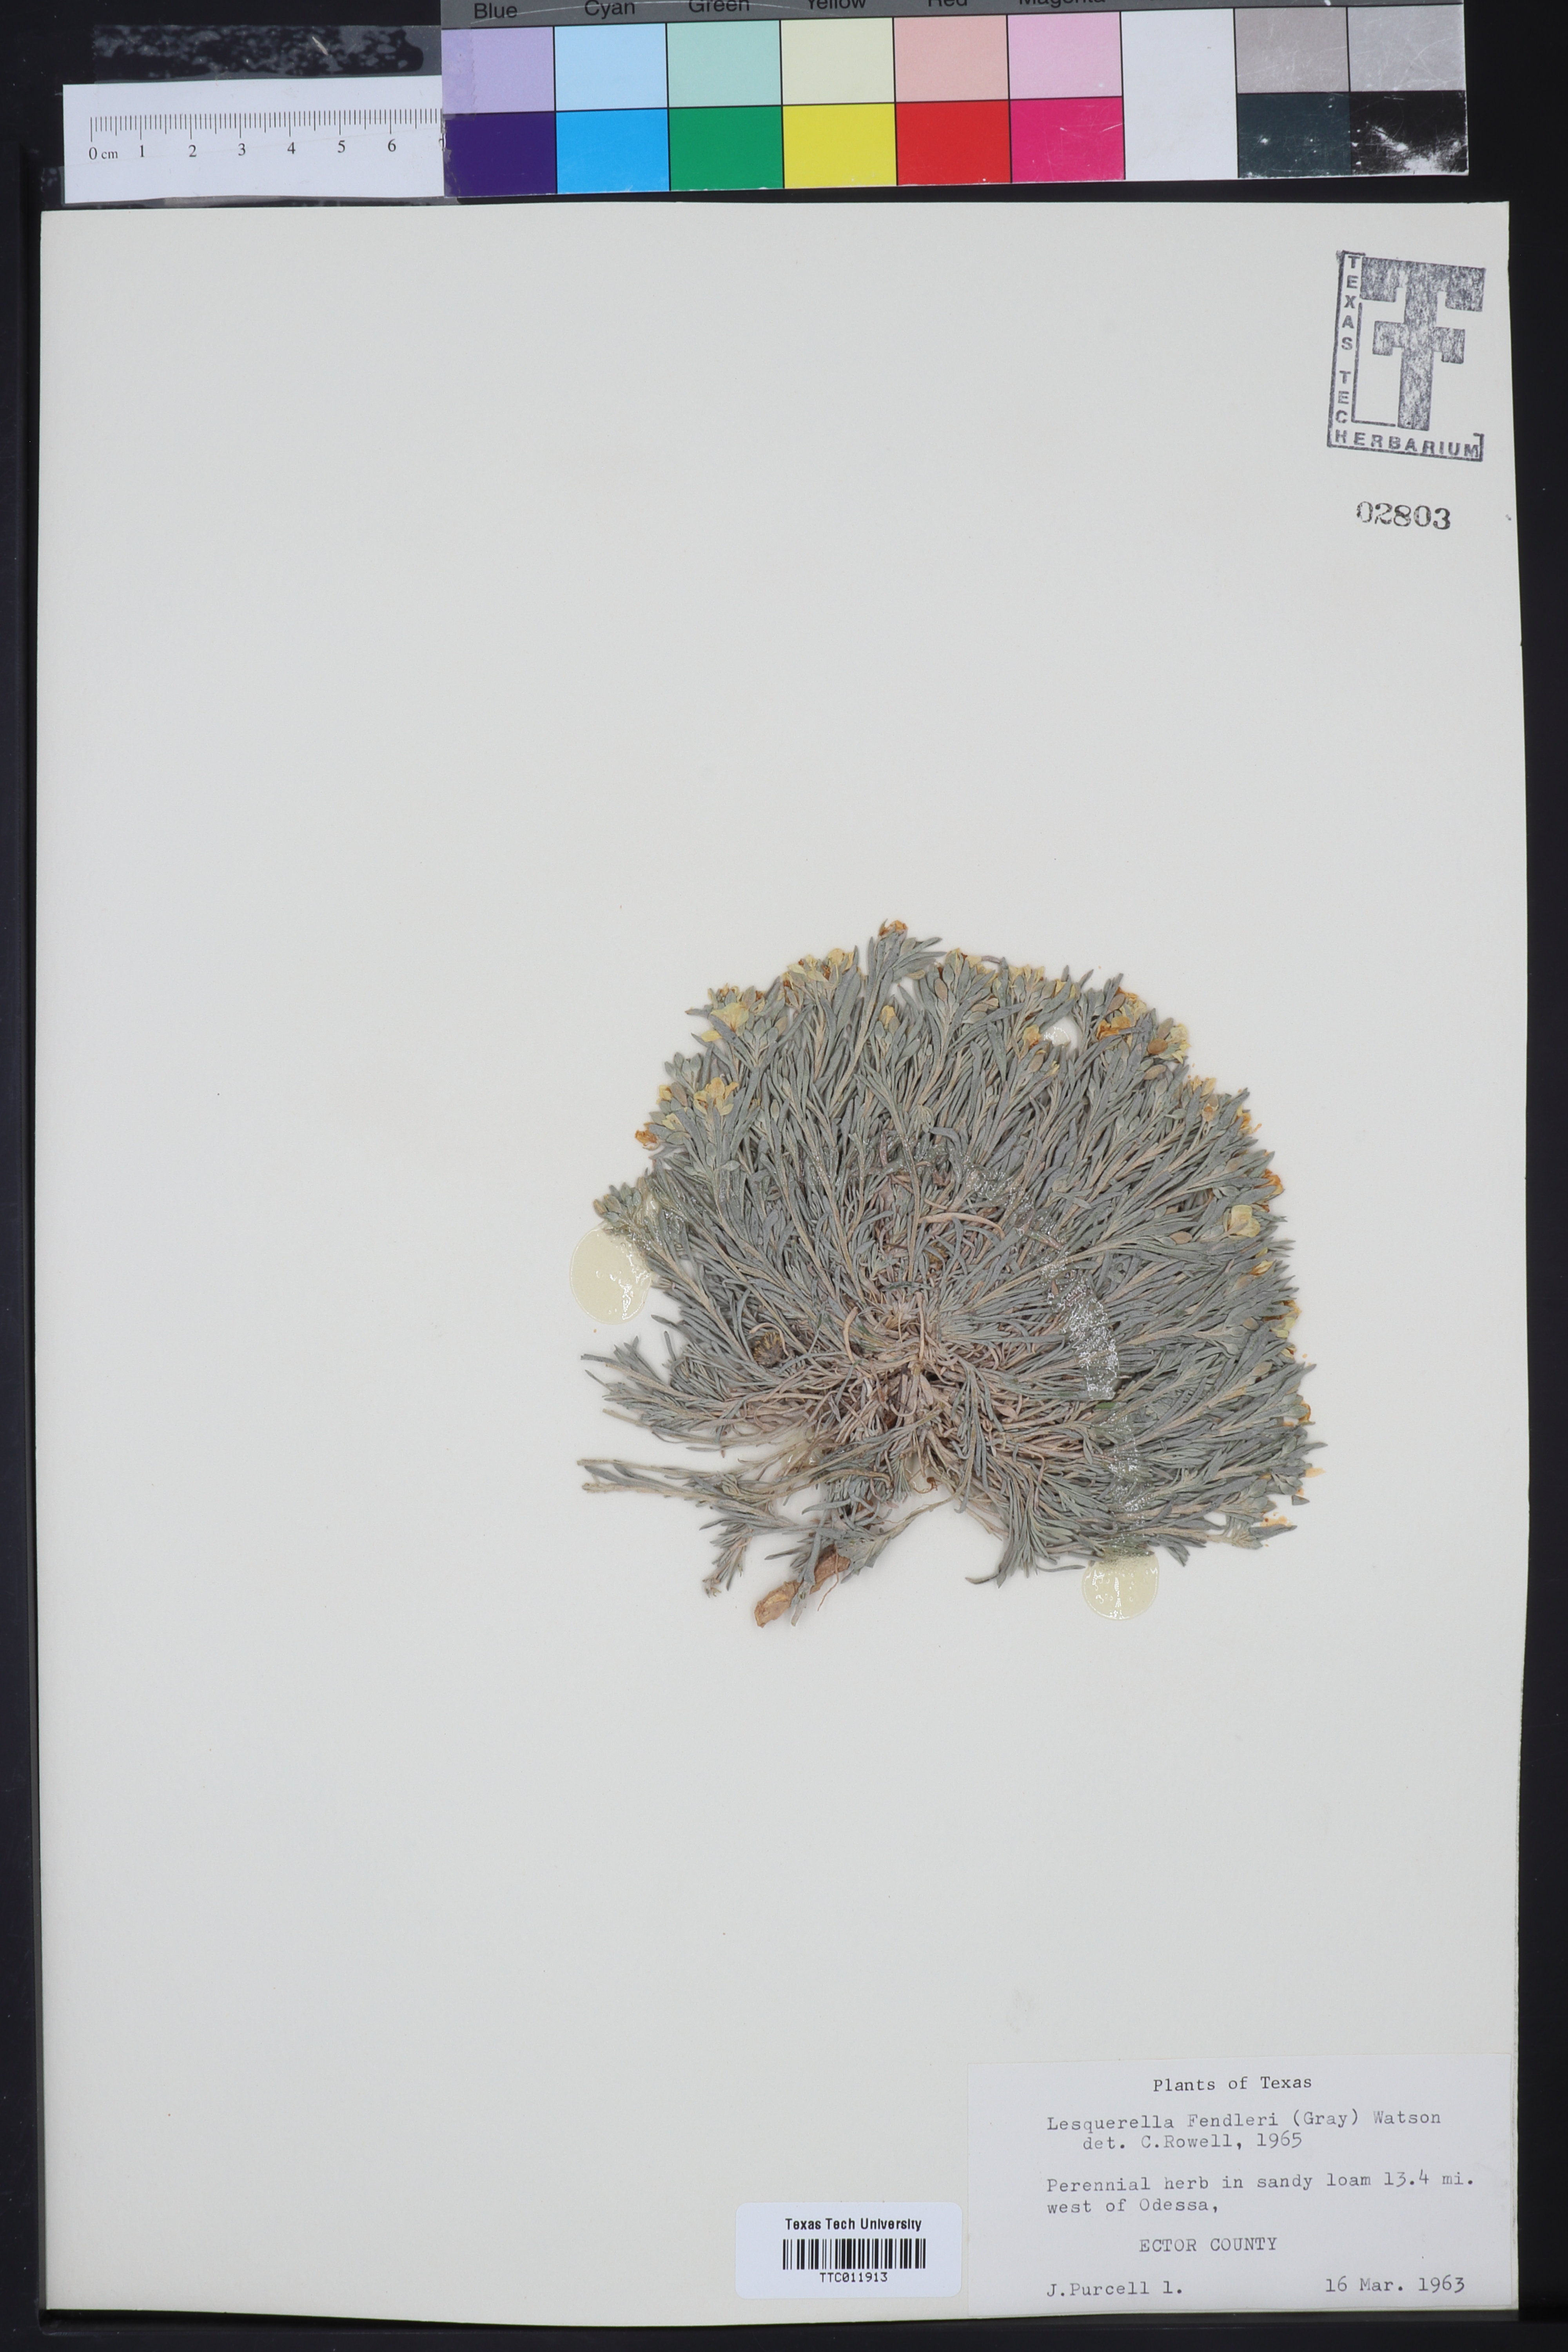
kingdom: Plantae
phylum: Tracheophyta
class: Magnoliopsida
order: Brassicales
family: Brassicaceae
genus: Physaria
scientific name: Physaria fendleri
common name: Fendler's bladderpod
